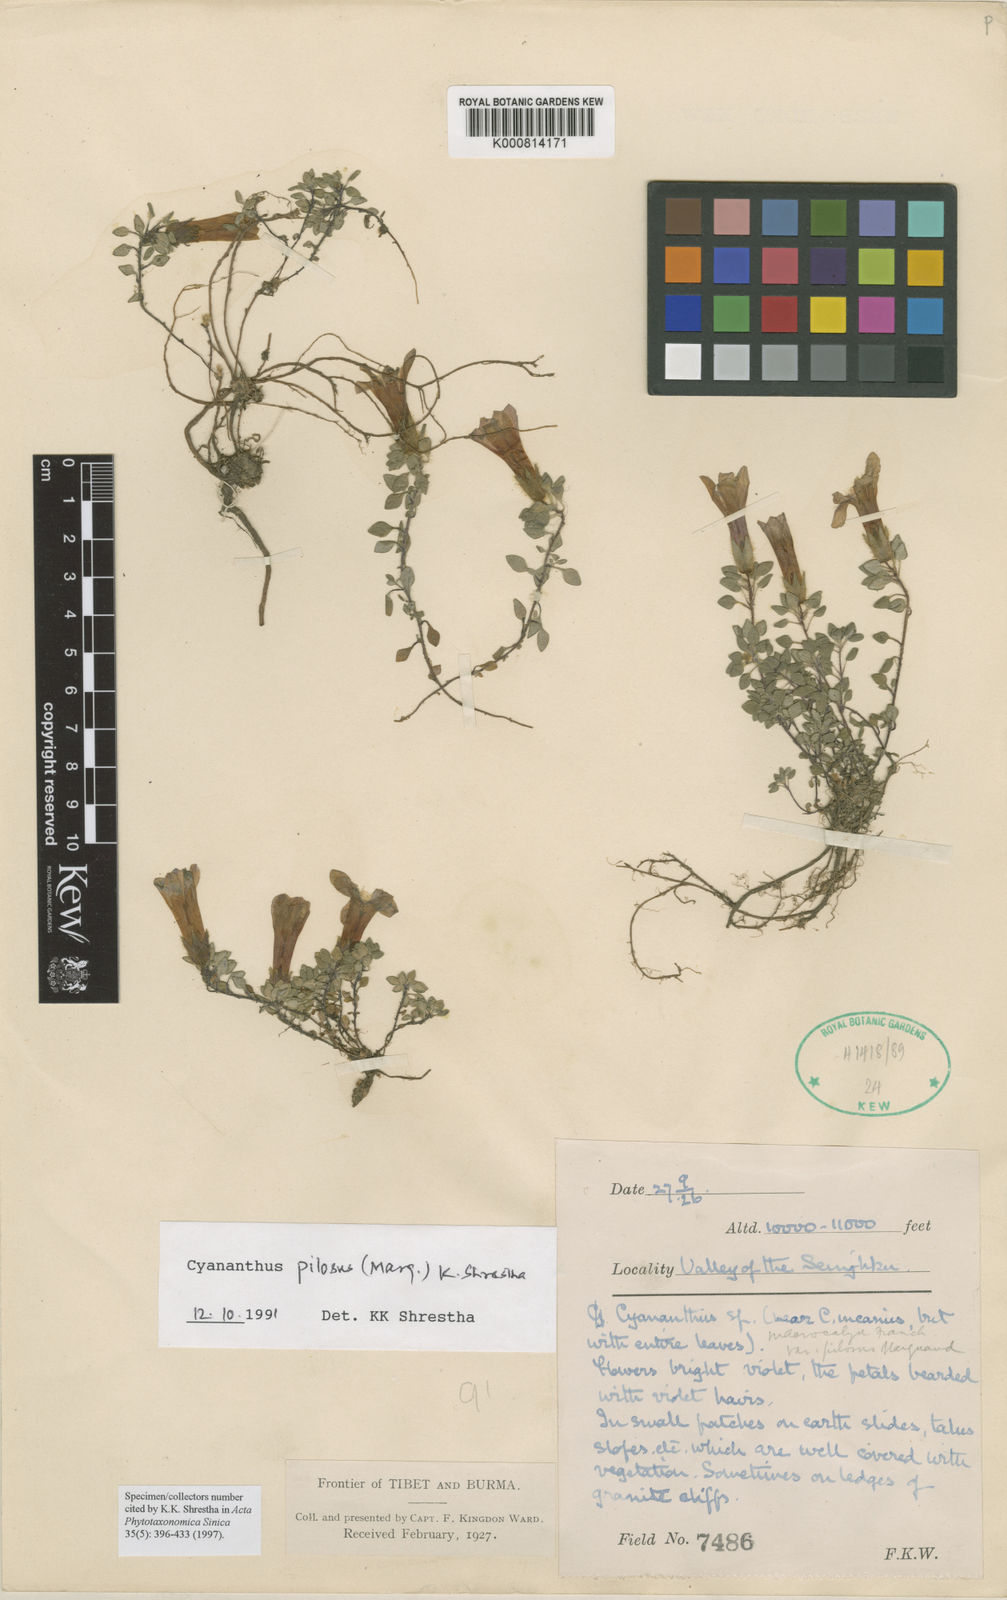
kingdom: Plantae
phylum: Tracheophyta
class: Magnoliopsida
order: Asterales
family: Campanulaceae
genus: Cyananthus
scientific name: Cyananthus macrocalyx
